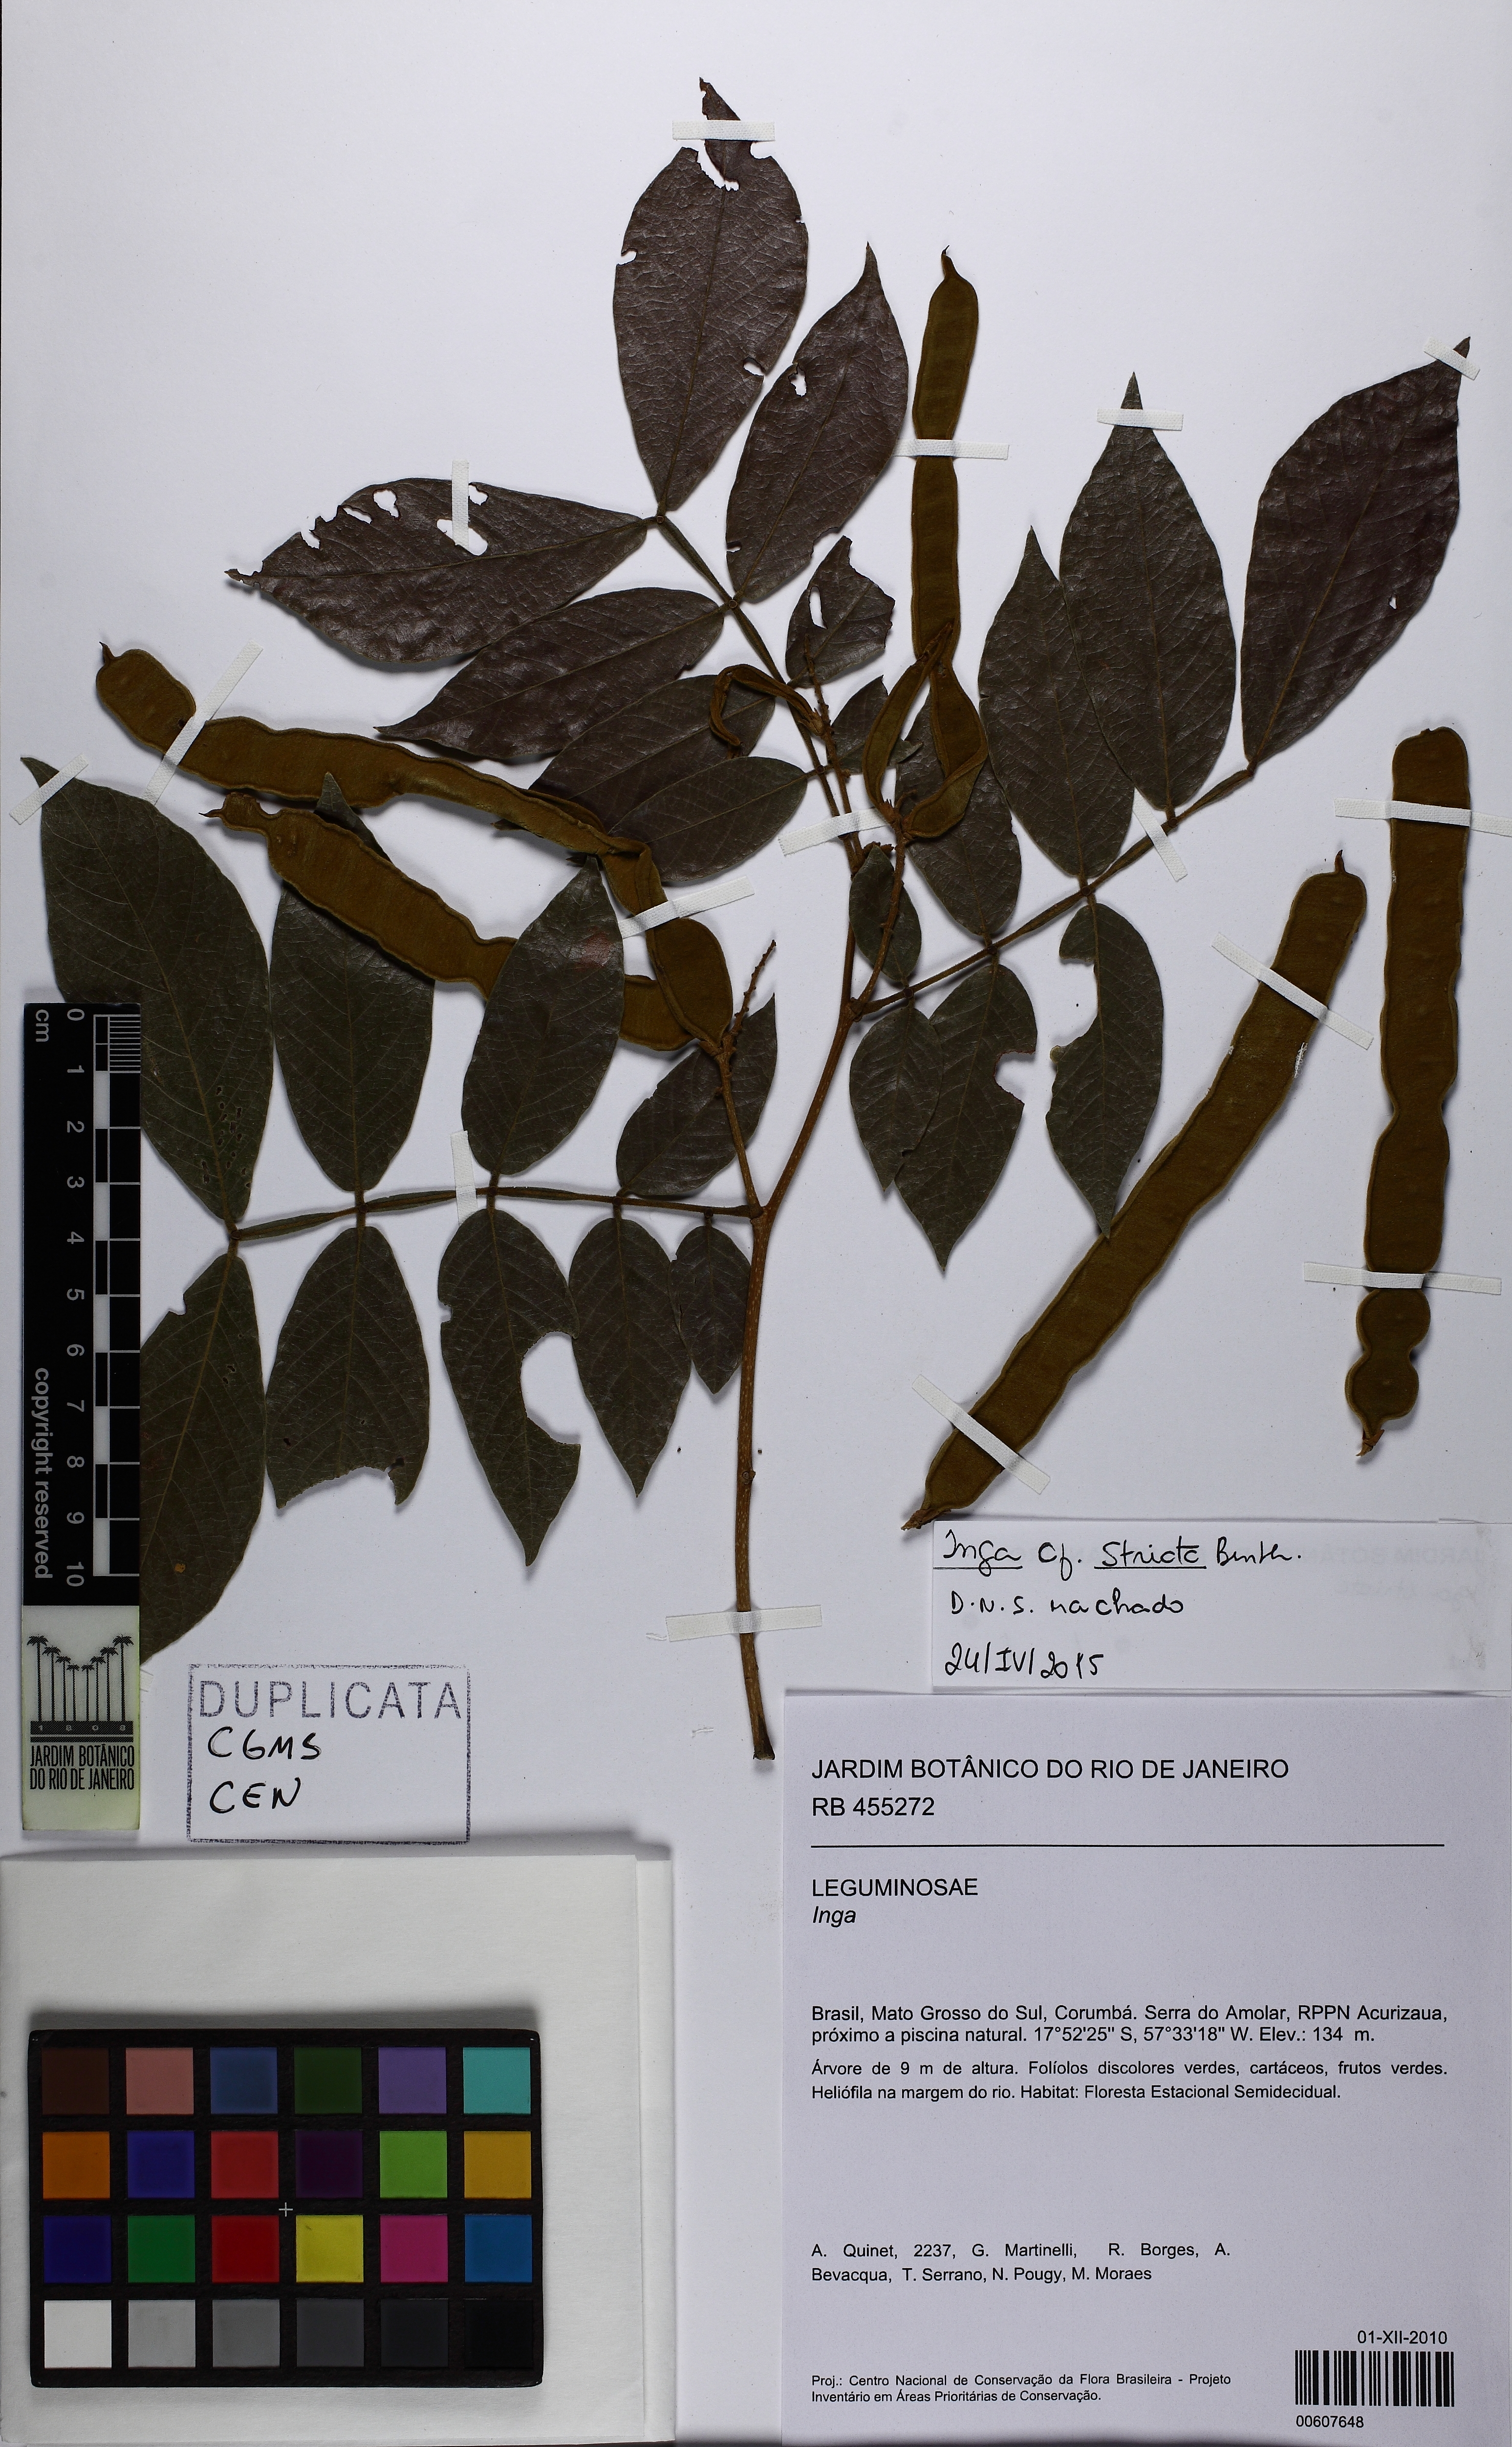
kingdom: Plantae
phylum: Tracheophyta
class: Magnoliopsida
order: Fabales
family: Fabaceae
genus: Inga
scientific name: Inga striata
